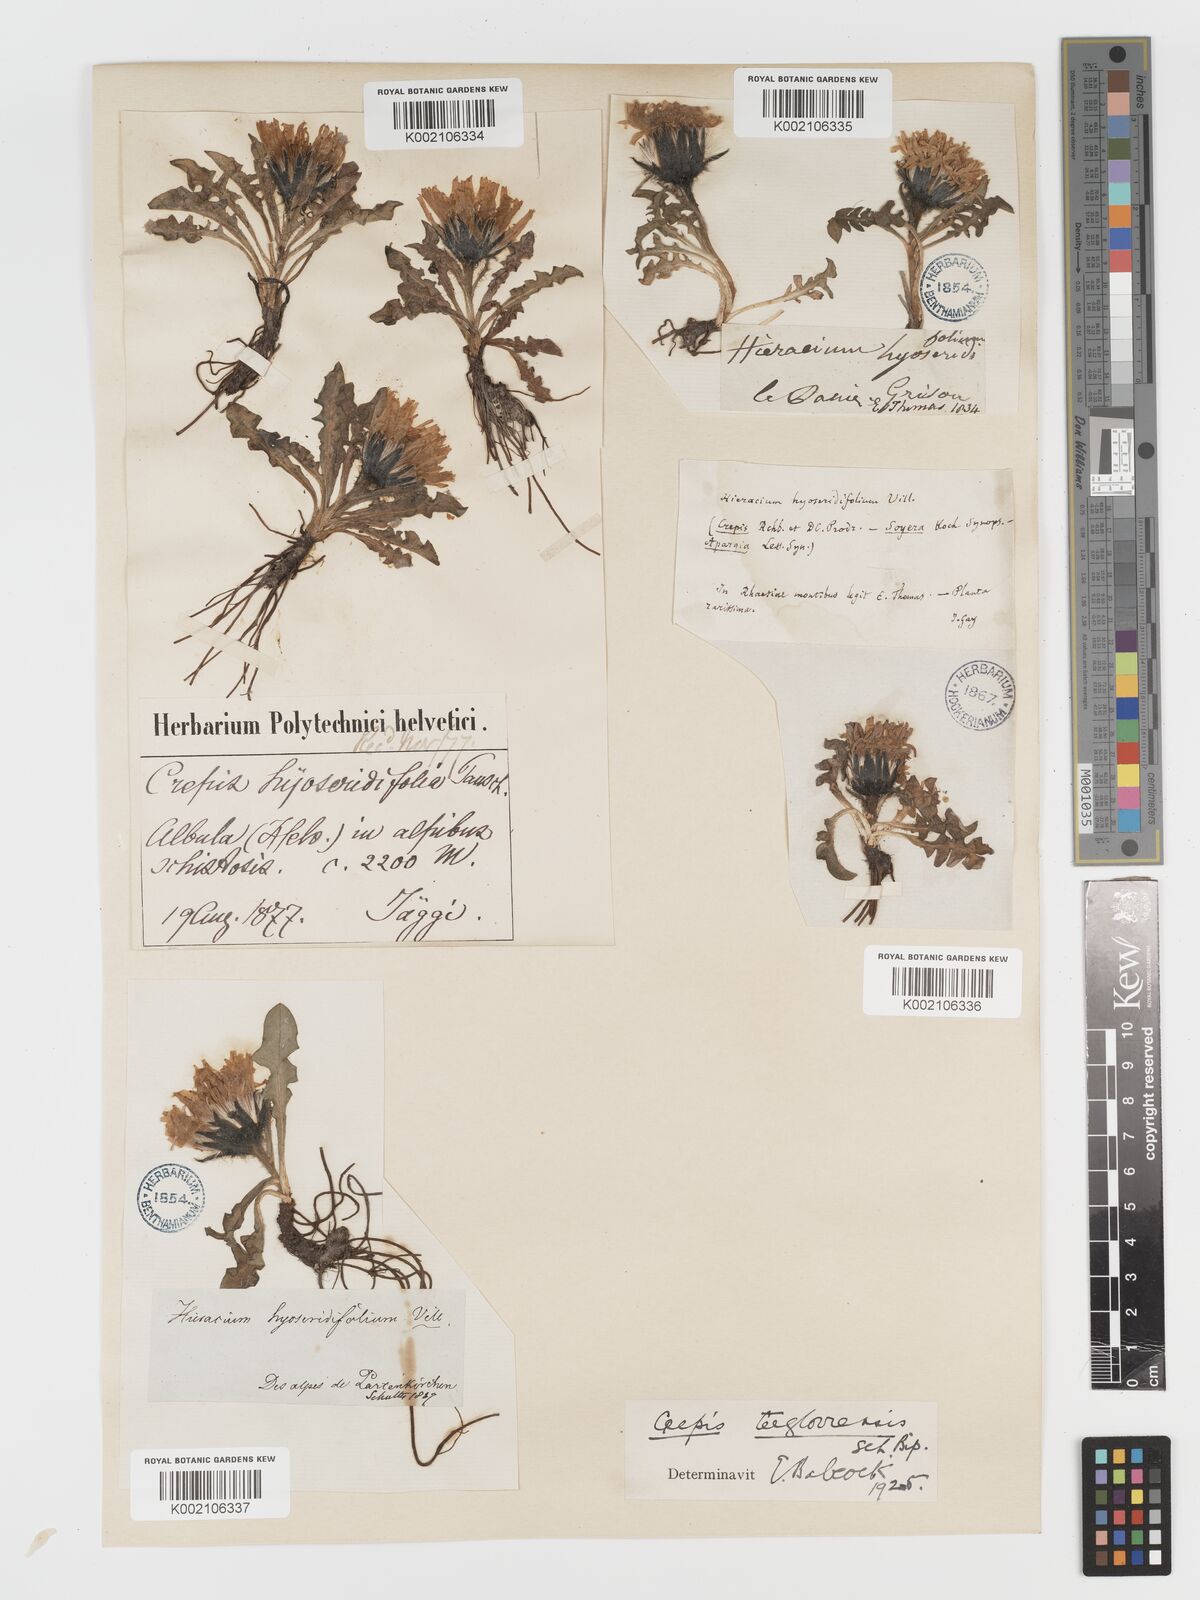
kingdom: Plantae
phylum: Tracheophyta
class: Magnoliopsida
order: Asterales
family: Asteraceae
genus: Crepis
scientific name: Crepis
